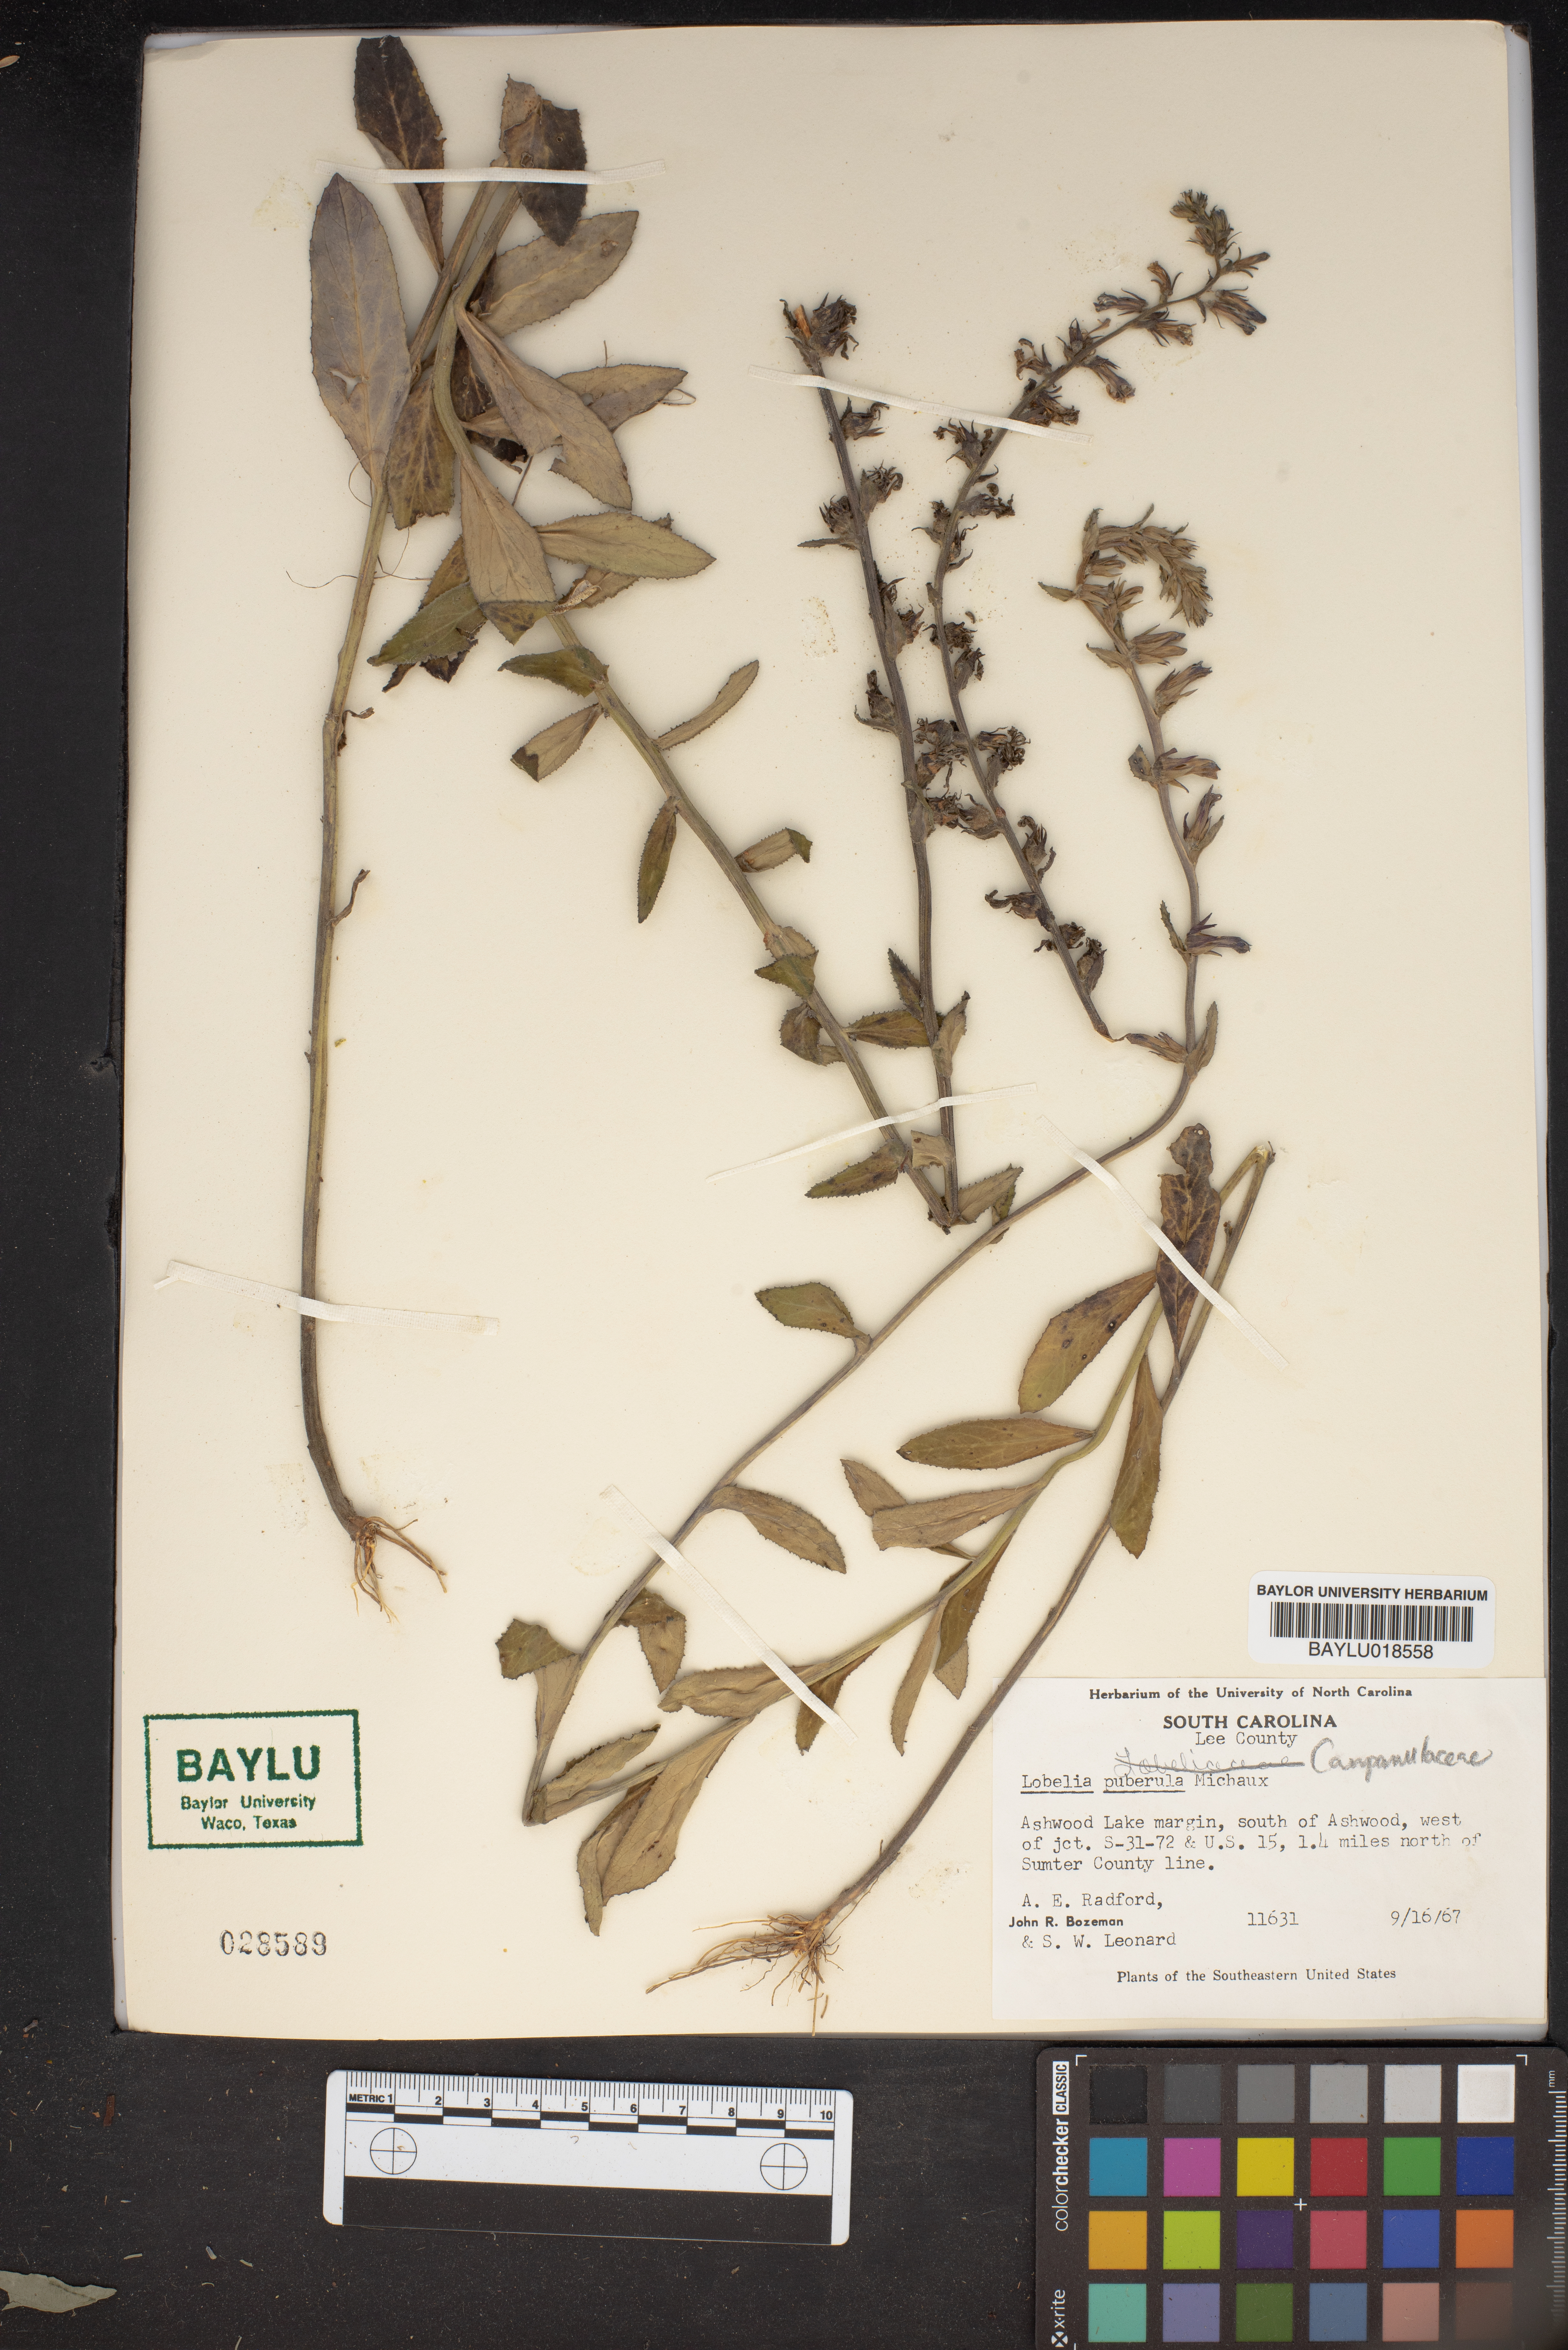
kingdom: Plantae
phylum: Tracheophyta
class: Magnoliopsida
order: Asterales
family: Campanulaceae
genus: Lobelia
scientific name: Lobelia puberula
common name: Purple dewdrop
